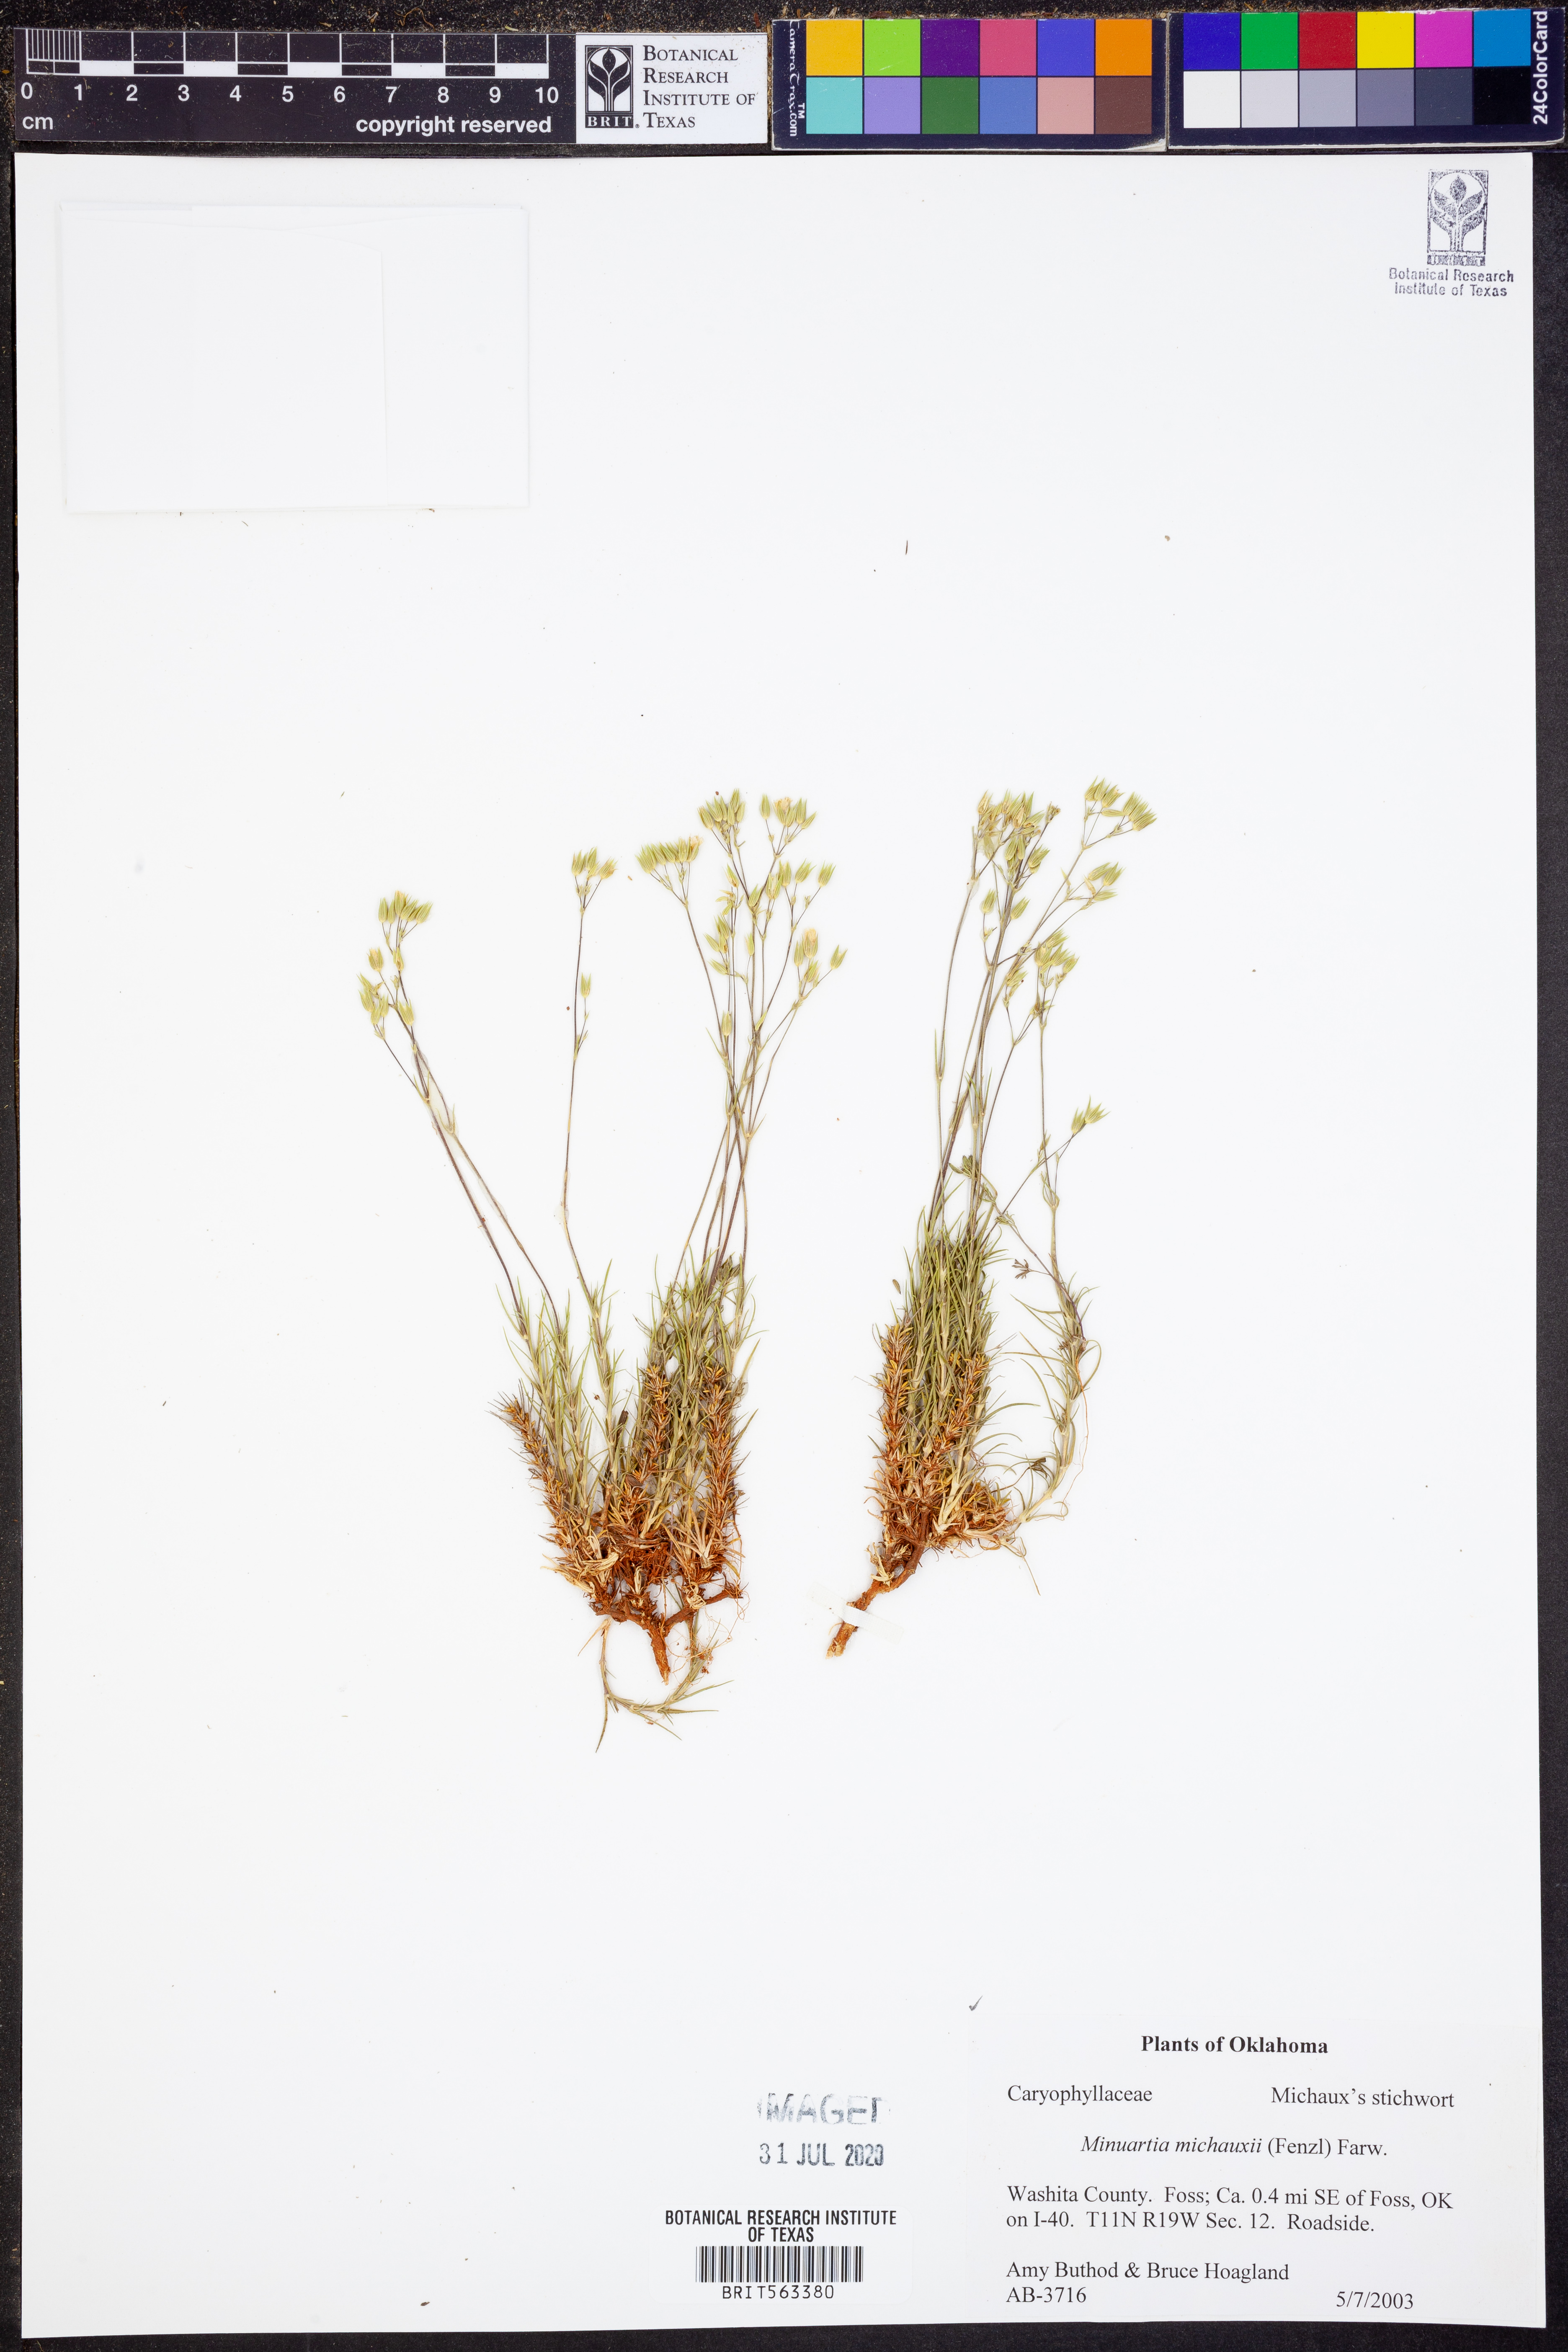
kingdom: Plantae
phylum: Tracheophyta
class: Magnoliopsida
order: Caryophyllales
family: Caryophyllaceae
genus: Sabulina
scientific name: Sabulina michauxii
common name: Michaux's stitchwort
